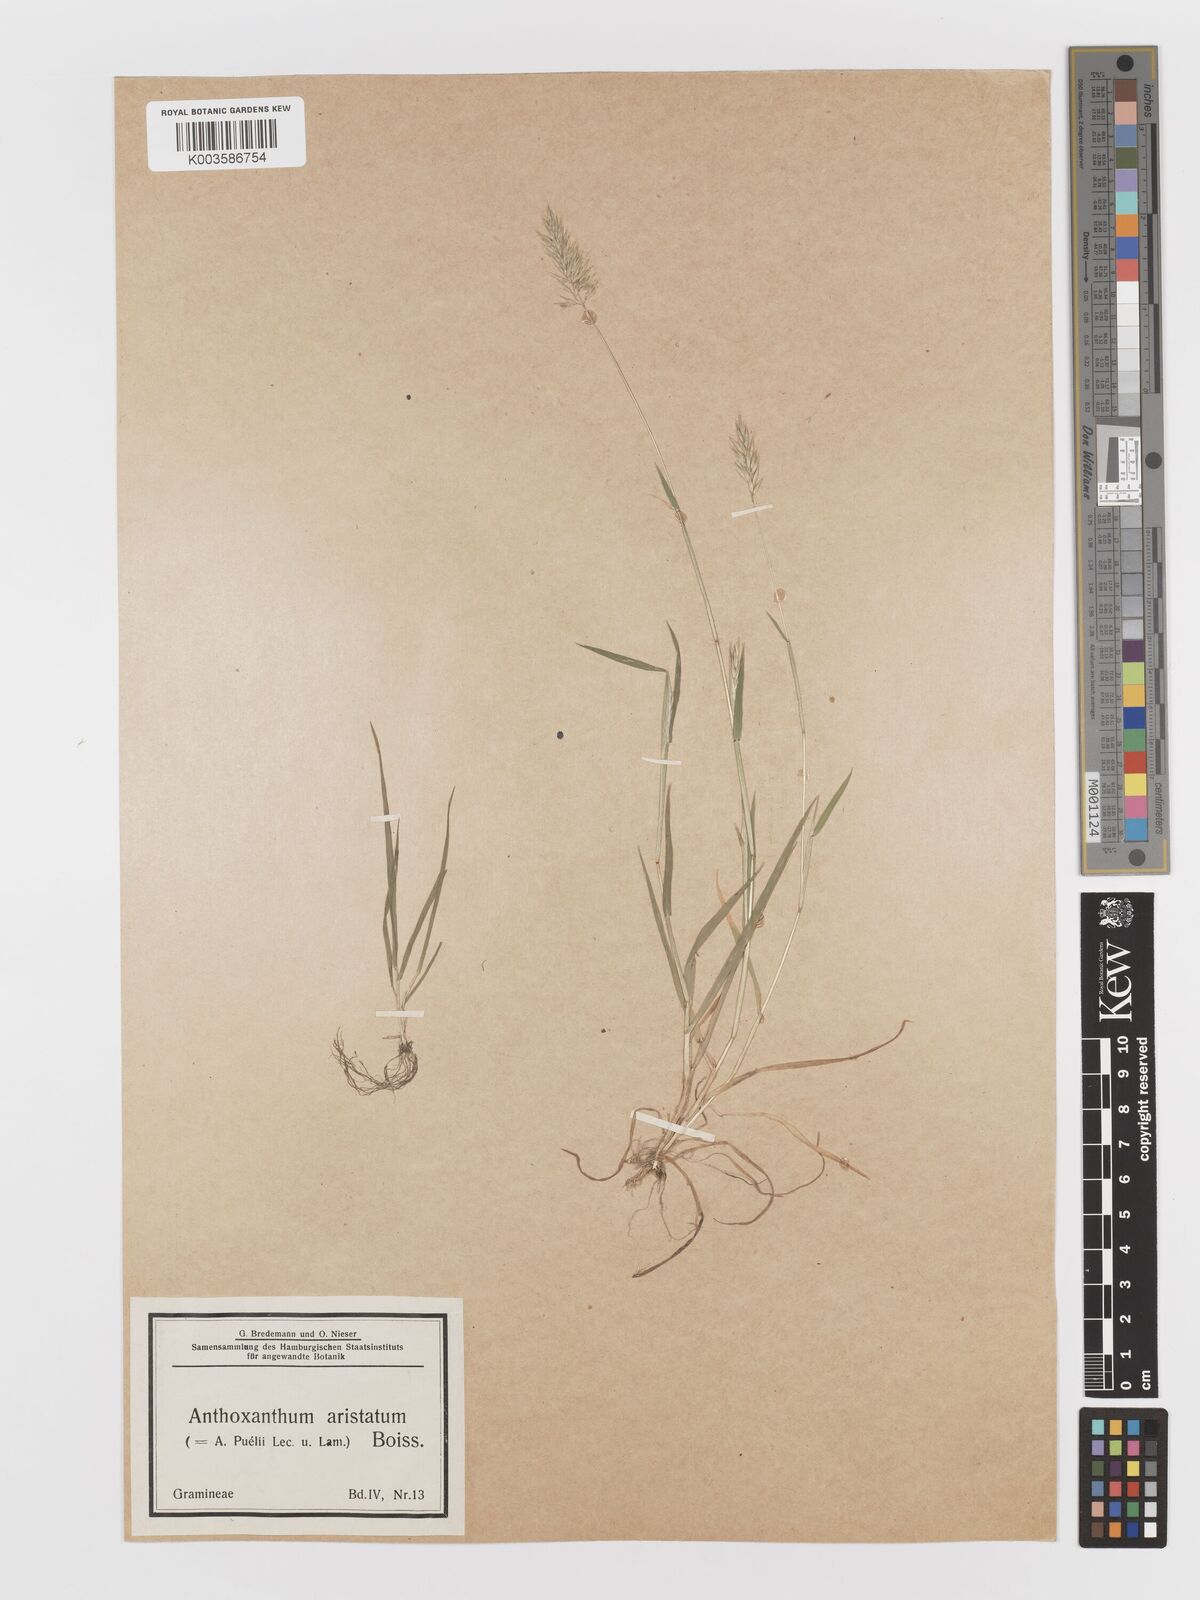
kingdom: Plantae
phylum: Tracheophyta
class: Liliopsida
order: Poales
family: Poaceae
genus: Anthoxanthum
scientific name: Anthoxanthum aristatum
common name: Annual vernal-grass
